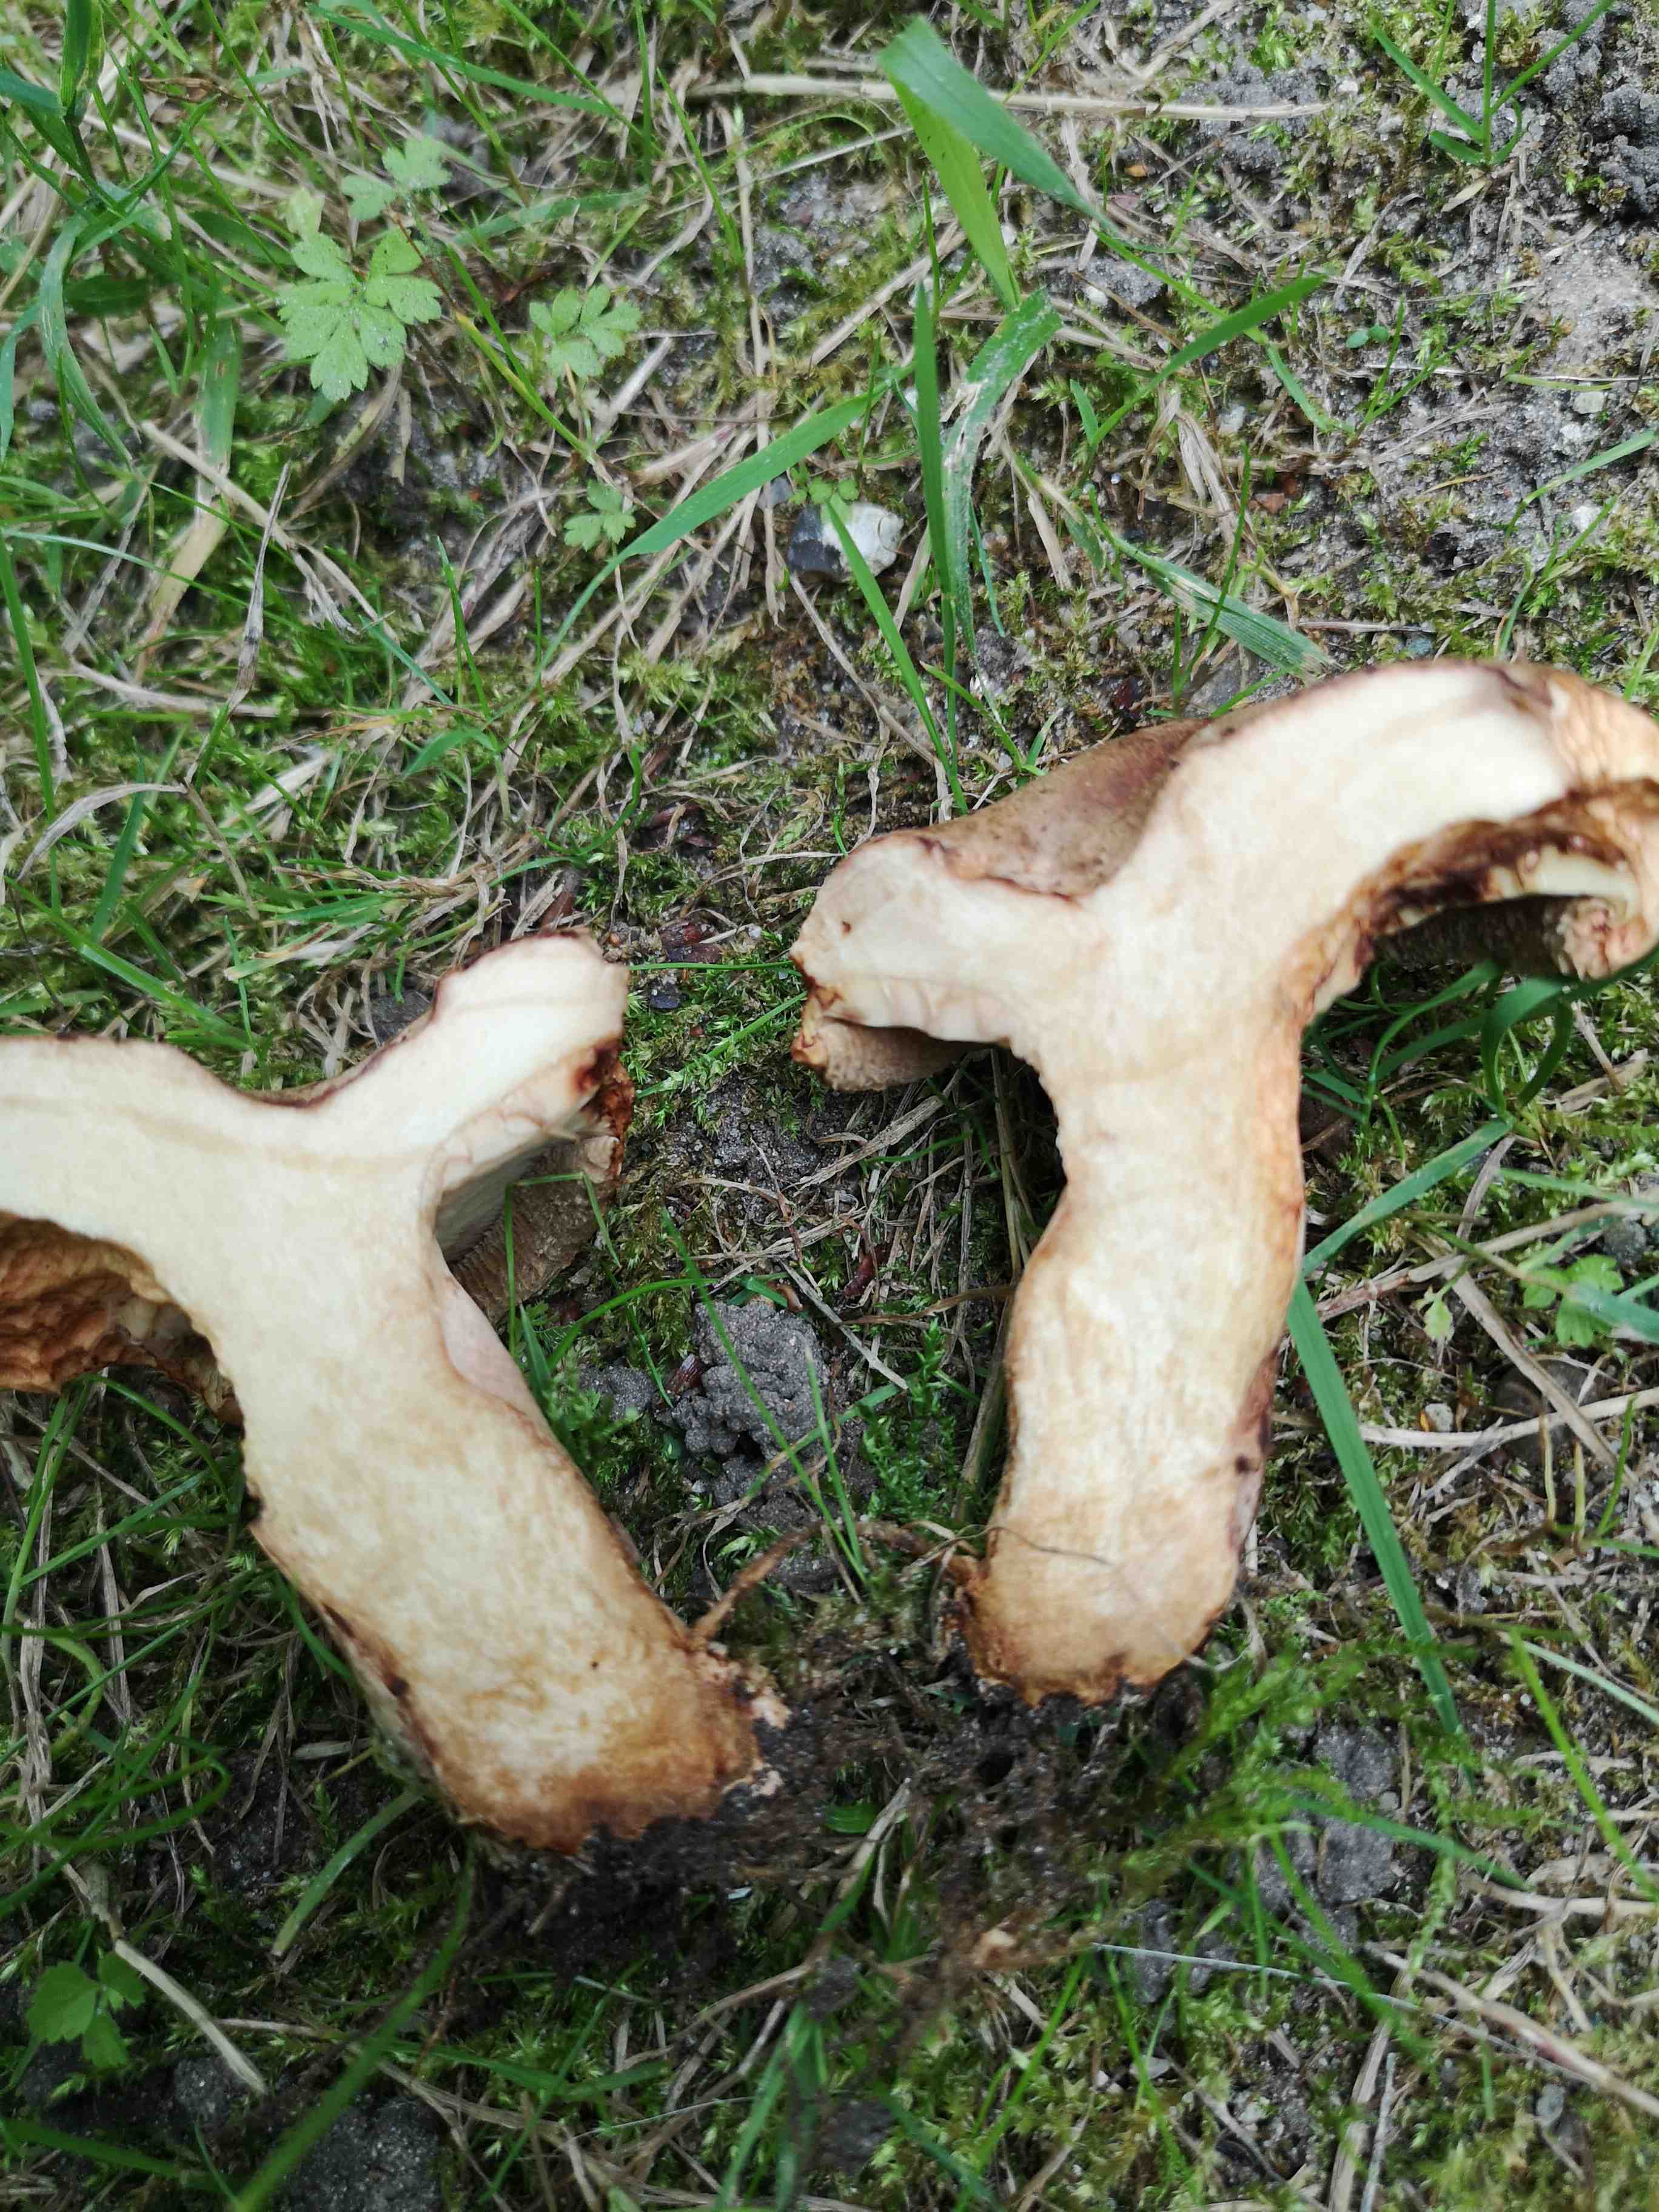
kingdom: Fungi
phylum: Basidiomycota
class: Agaricomycetes
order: Boletales
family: Paxillaceae
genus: Paxillus
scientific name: Paxillus involutus
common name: almindelig netbladhat
